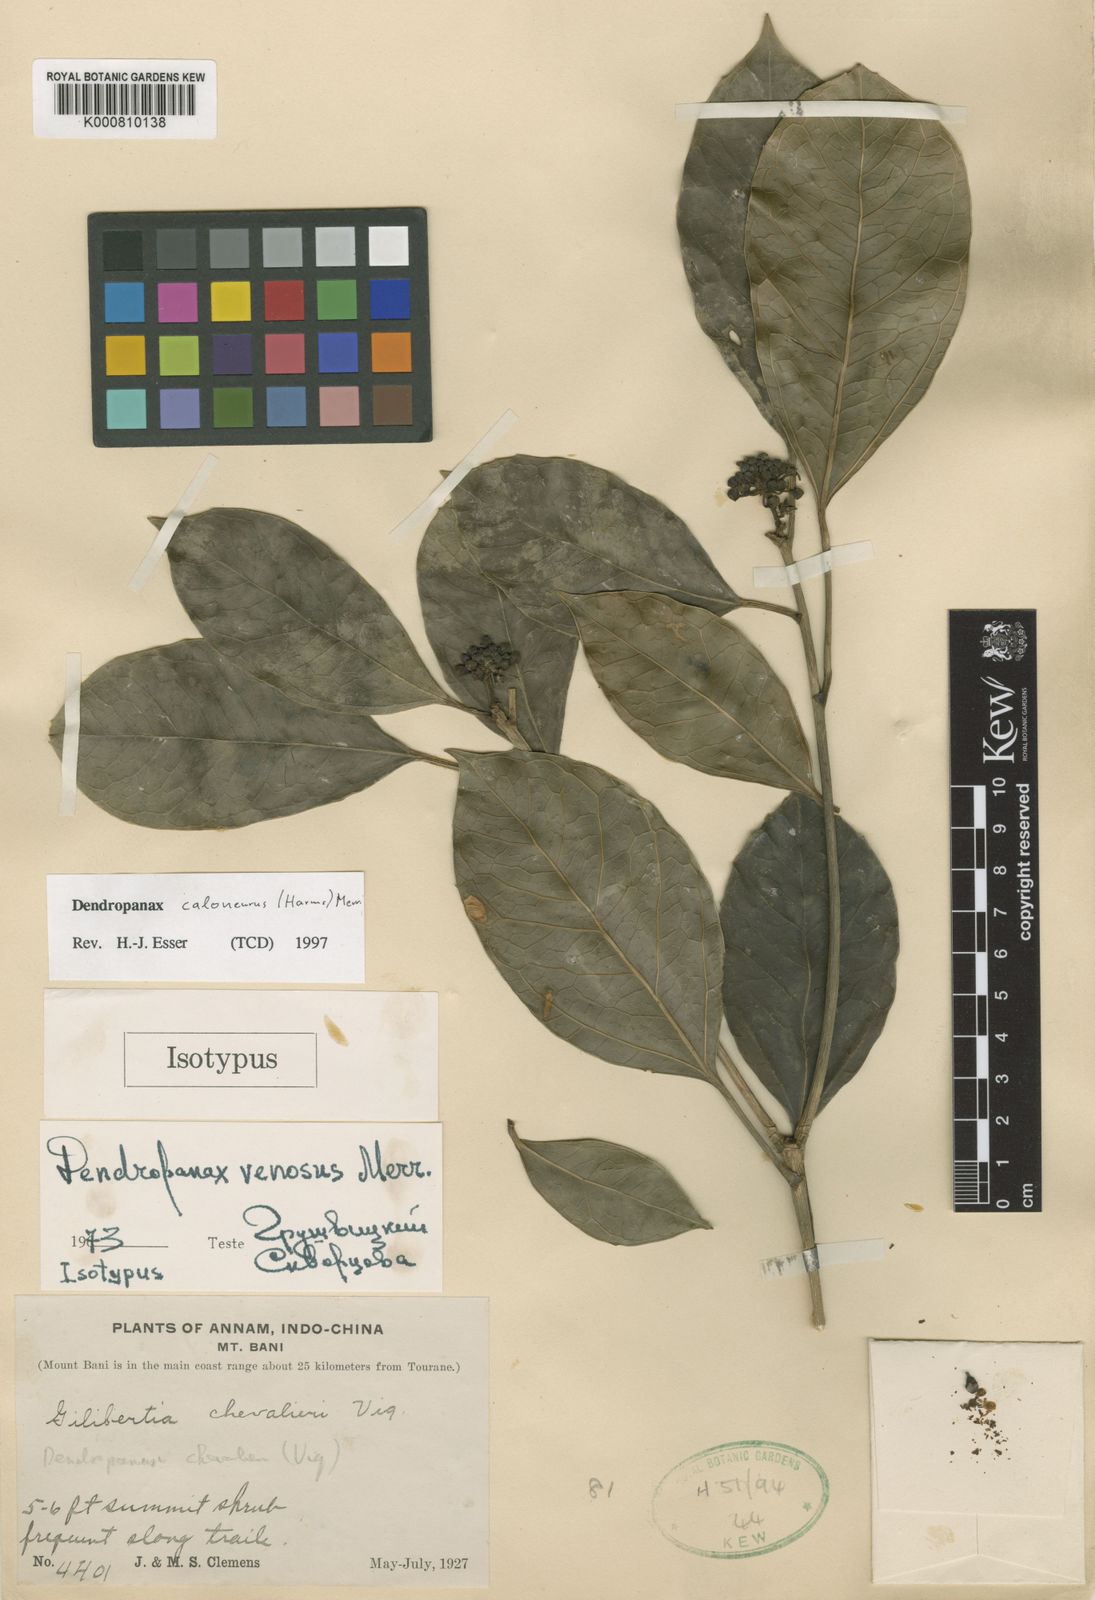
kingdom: Plantae
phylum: Tracheophyta
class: Magnoliopsida
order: Apiales
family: Araliaceae
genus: Dendropanax
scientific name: Dendropanax caloneurus
